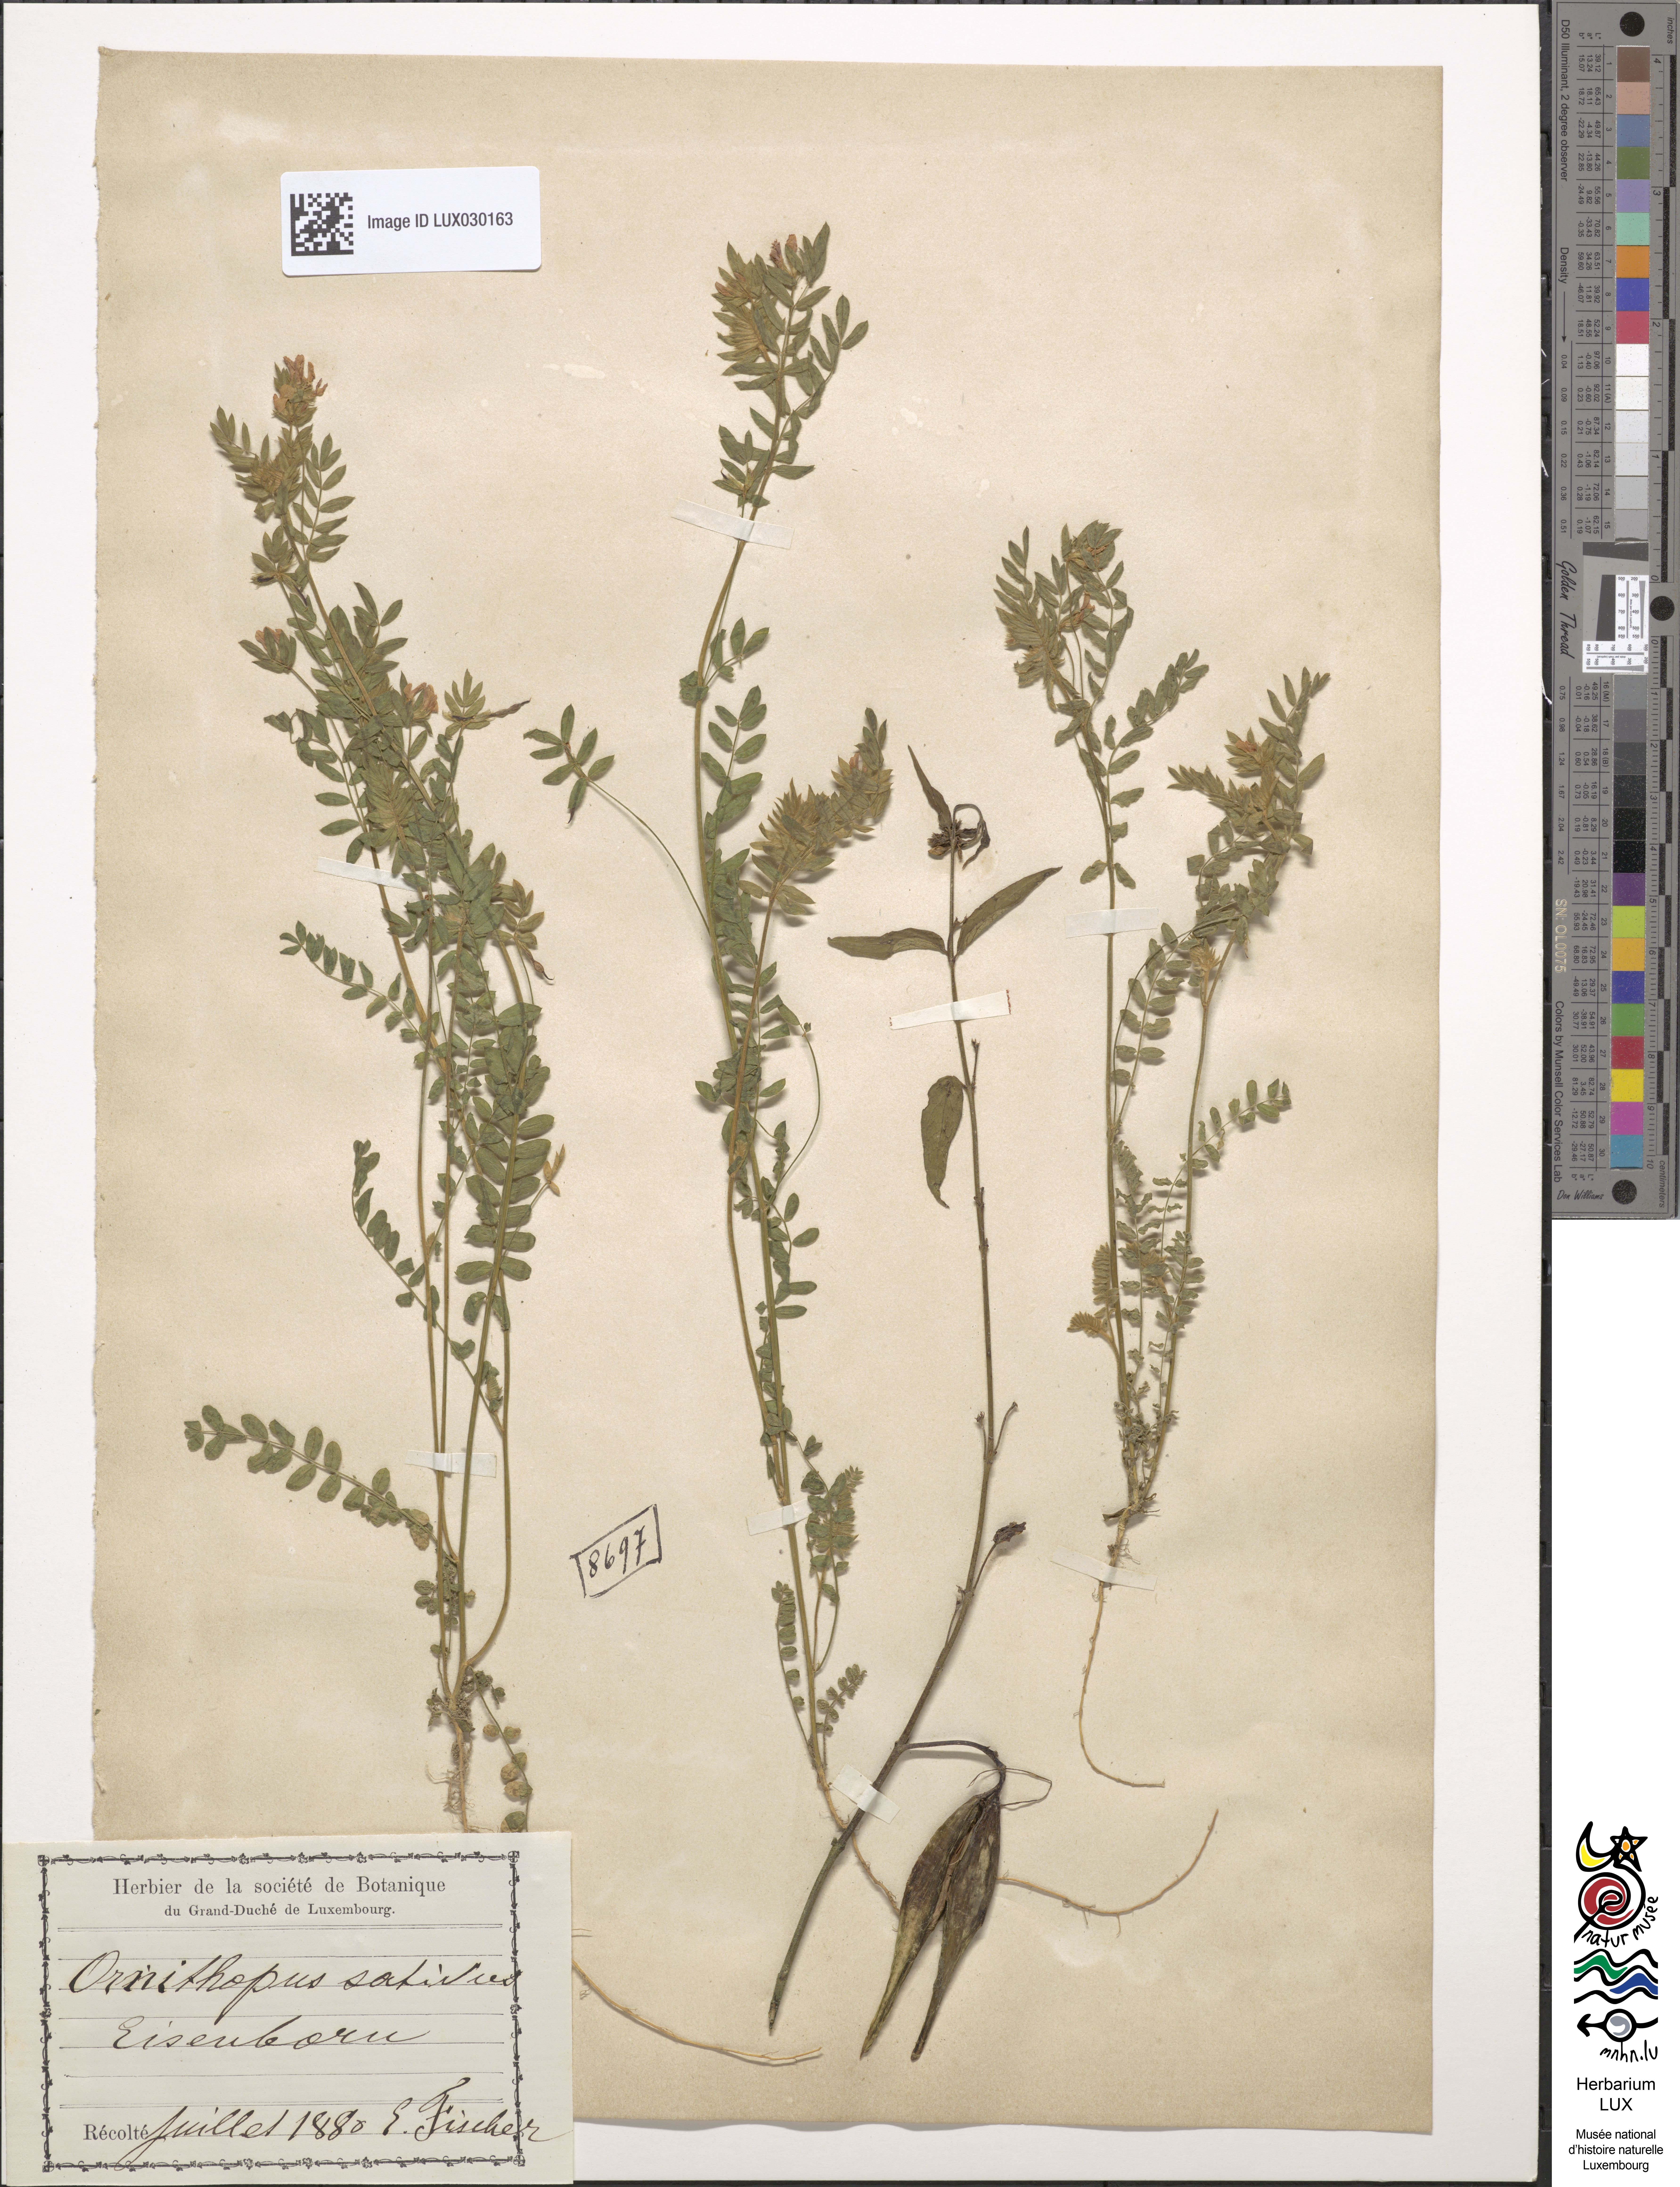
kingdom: Plantae
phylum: Tracheophyta
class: Magnoliopsida
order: Fabales
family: Fabaceae
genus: Ornithopus
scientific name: Ornithopus sativus
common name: Serradella
